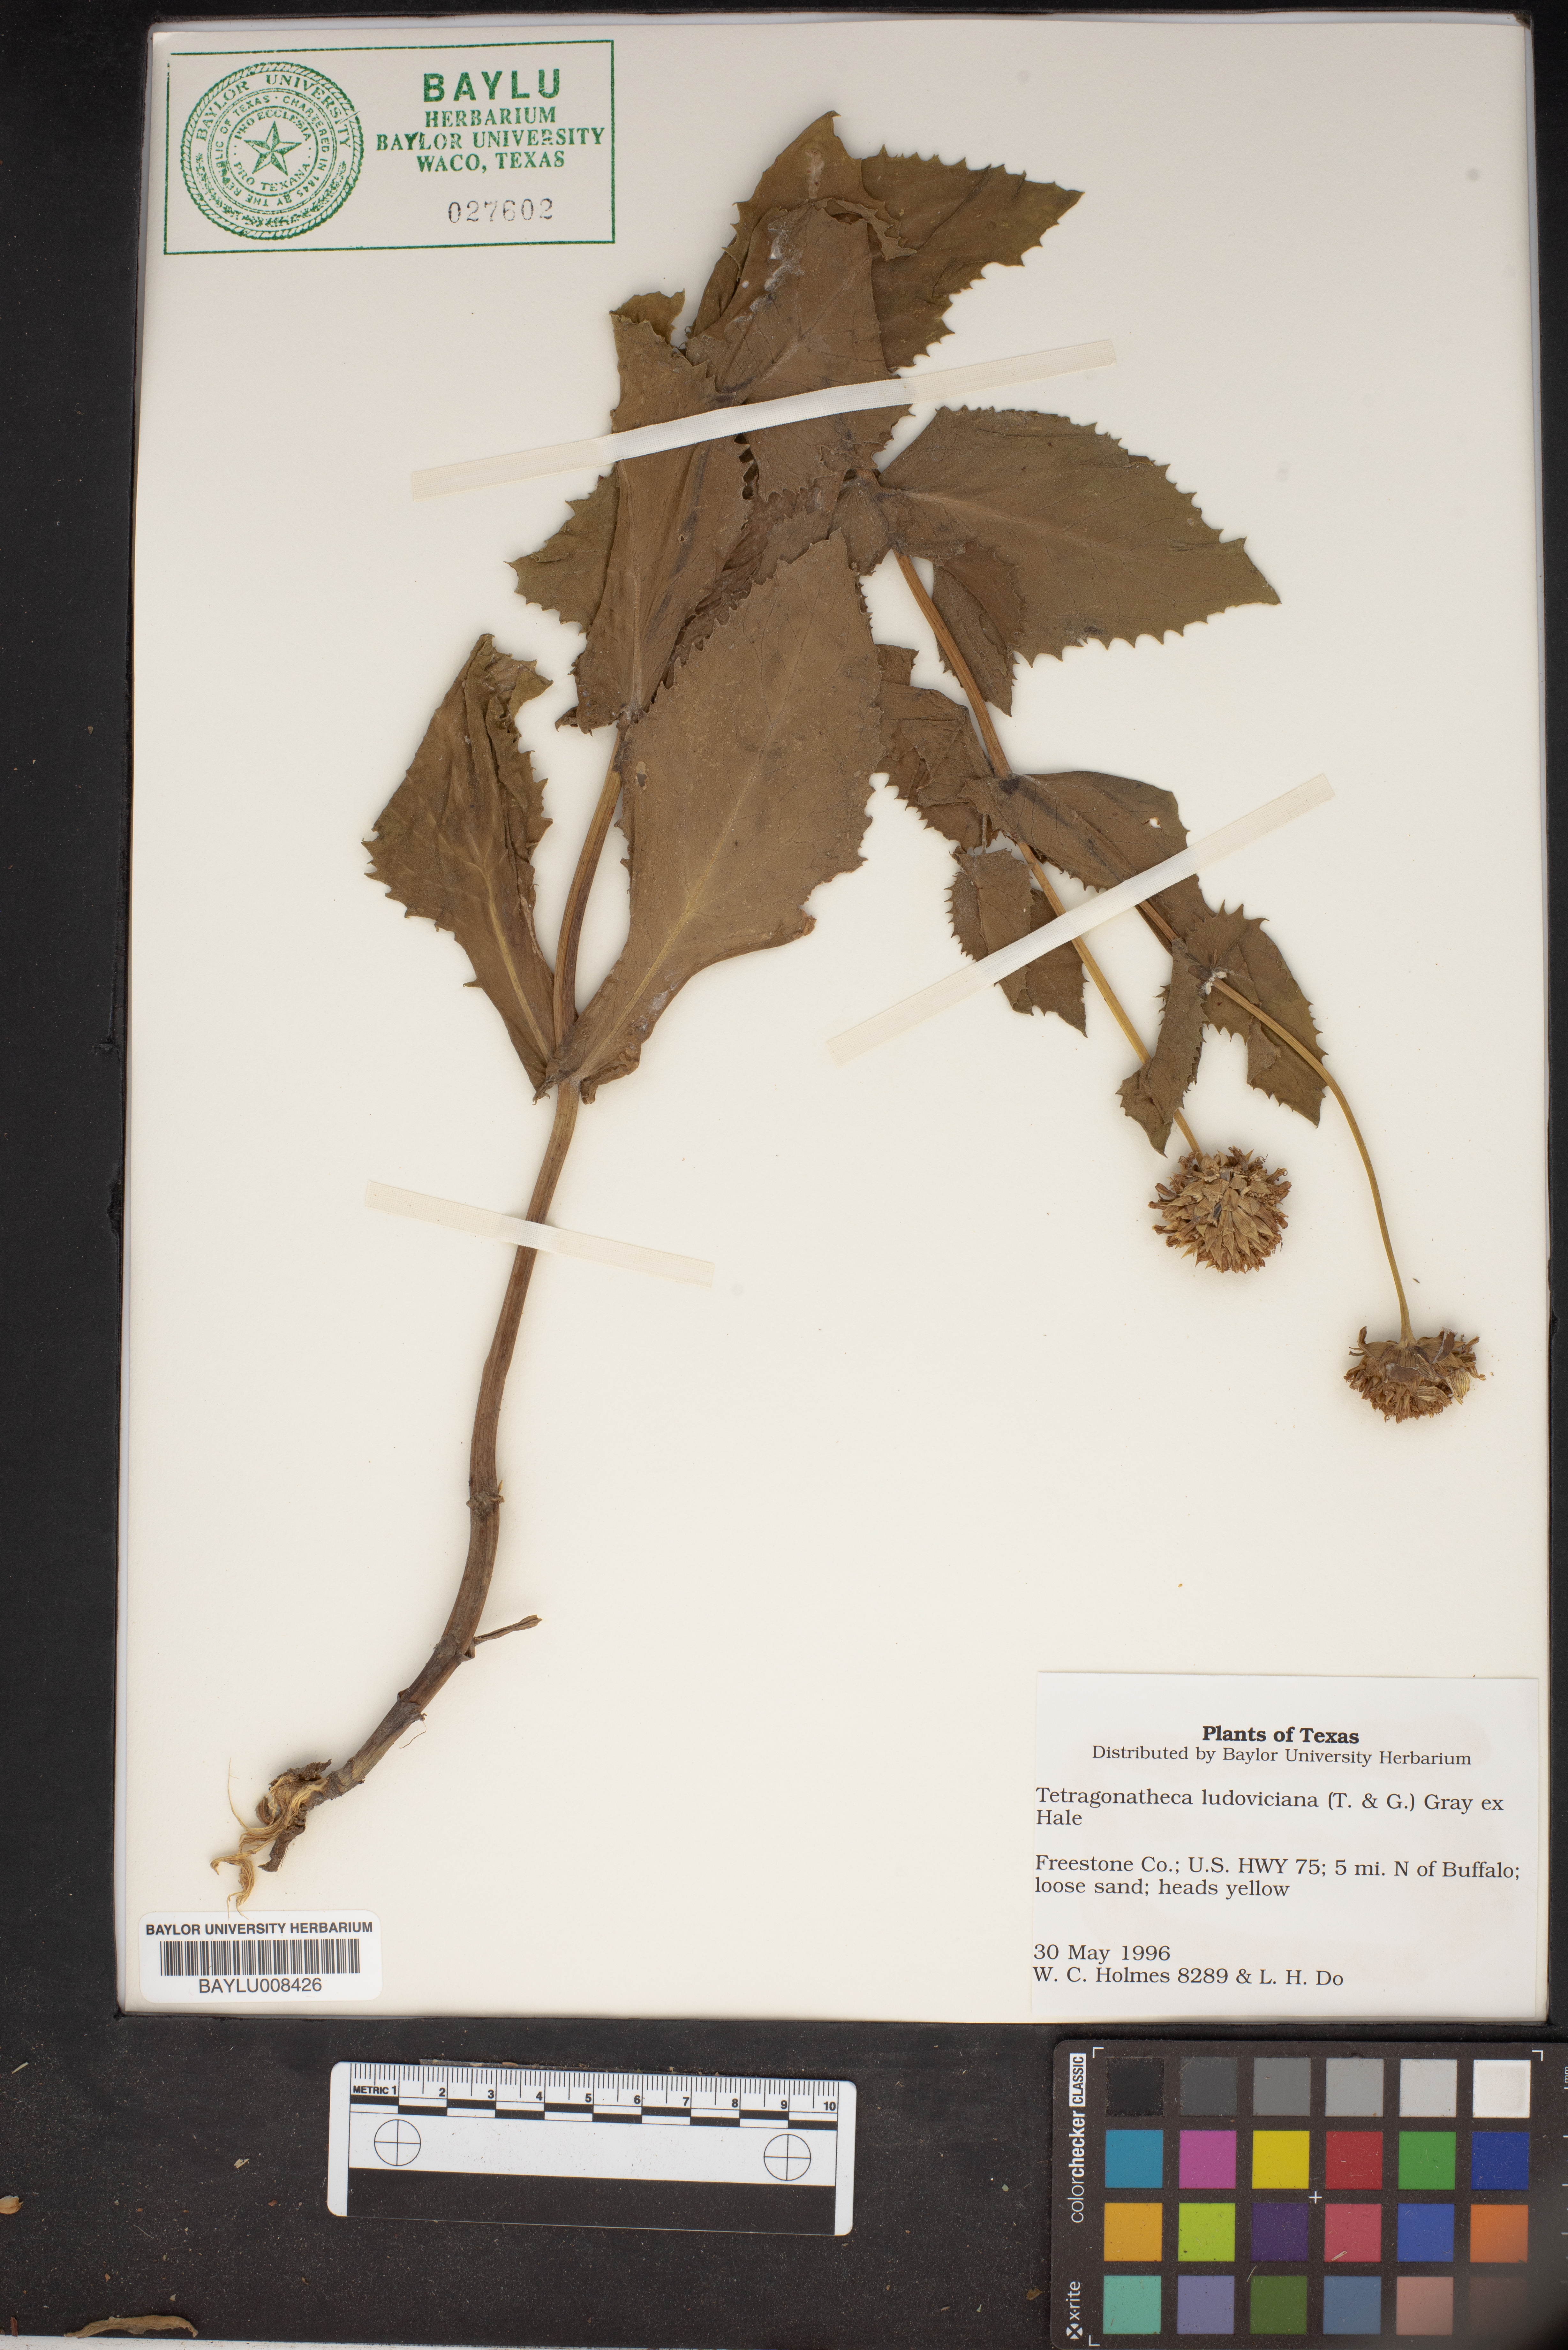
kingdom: Plantae
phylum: Tracheophyta
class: Magnoliopsida
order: Asterales
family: Asteraceae
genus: Tetragonotheca
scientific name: Tetragonotheca ludoviciana
